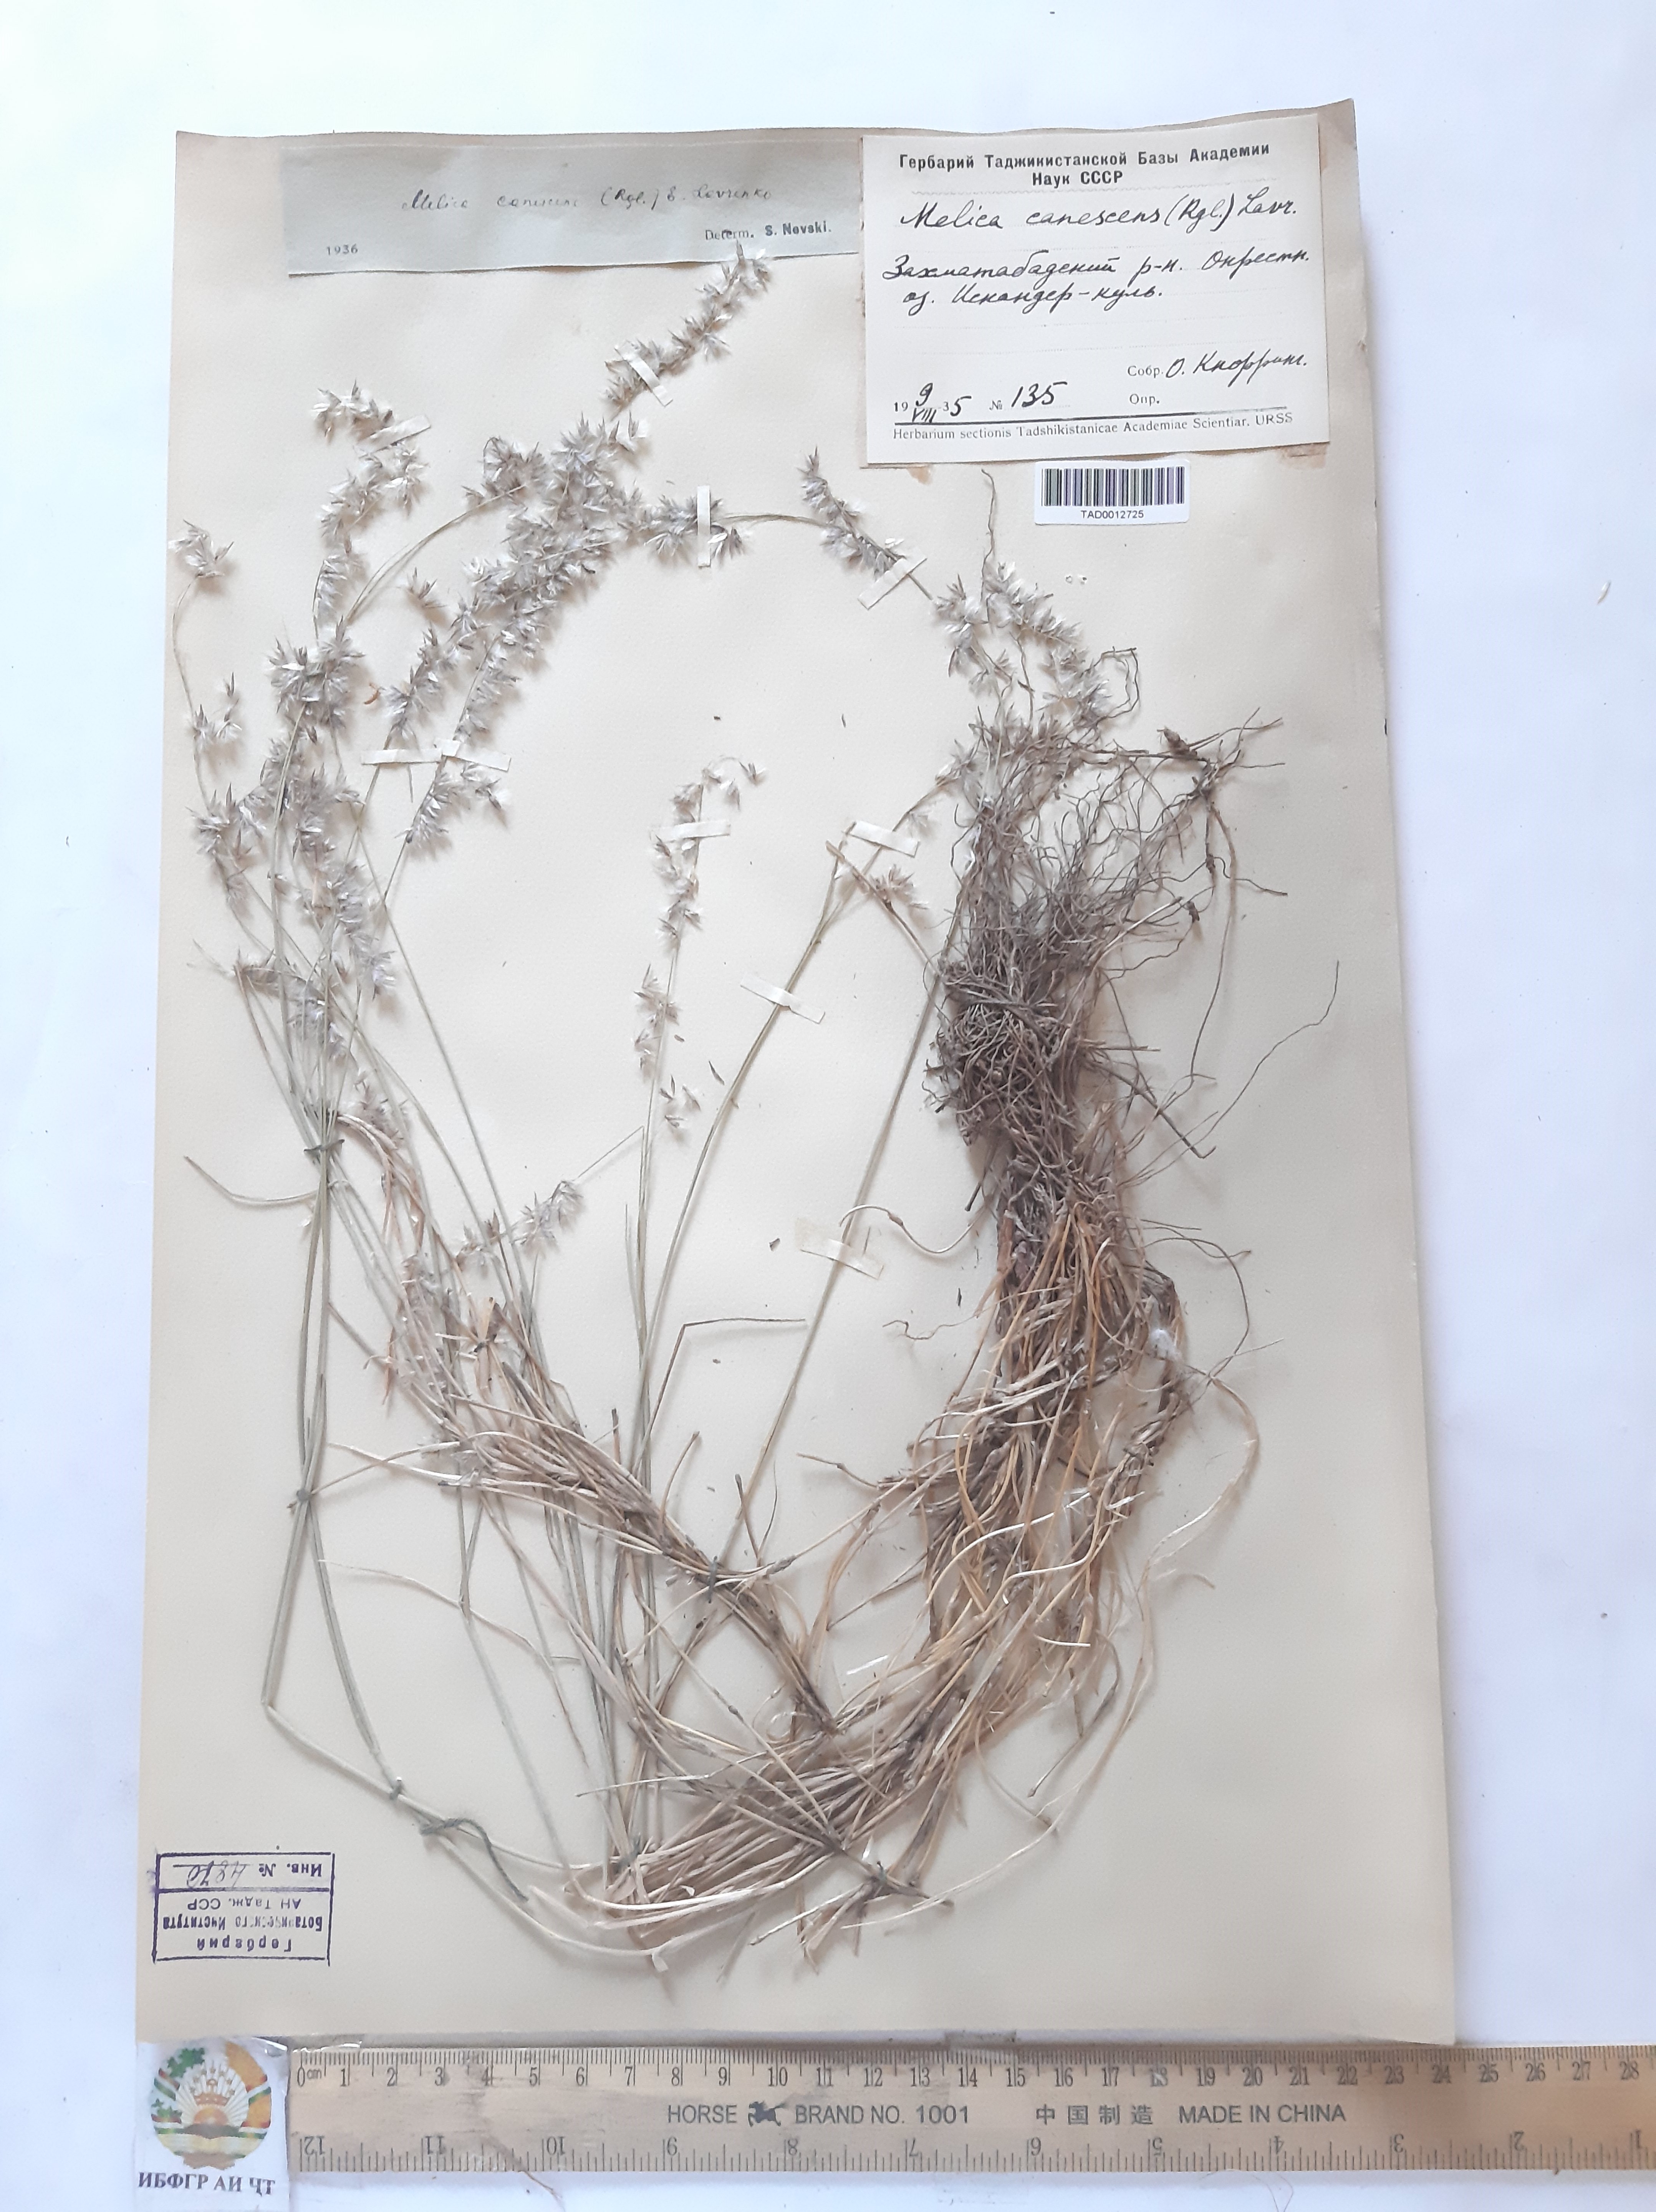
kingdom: Plantae
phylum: Tracheophyta
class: Liliopsida
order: Poales
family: Poaceae
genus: Melica
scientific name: Melica persica
